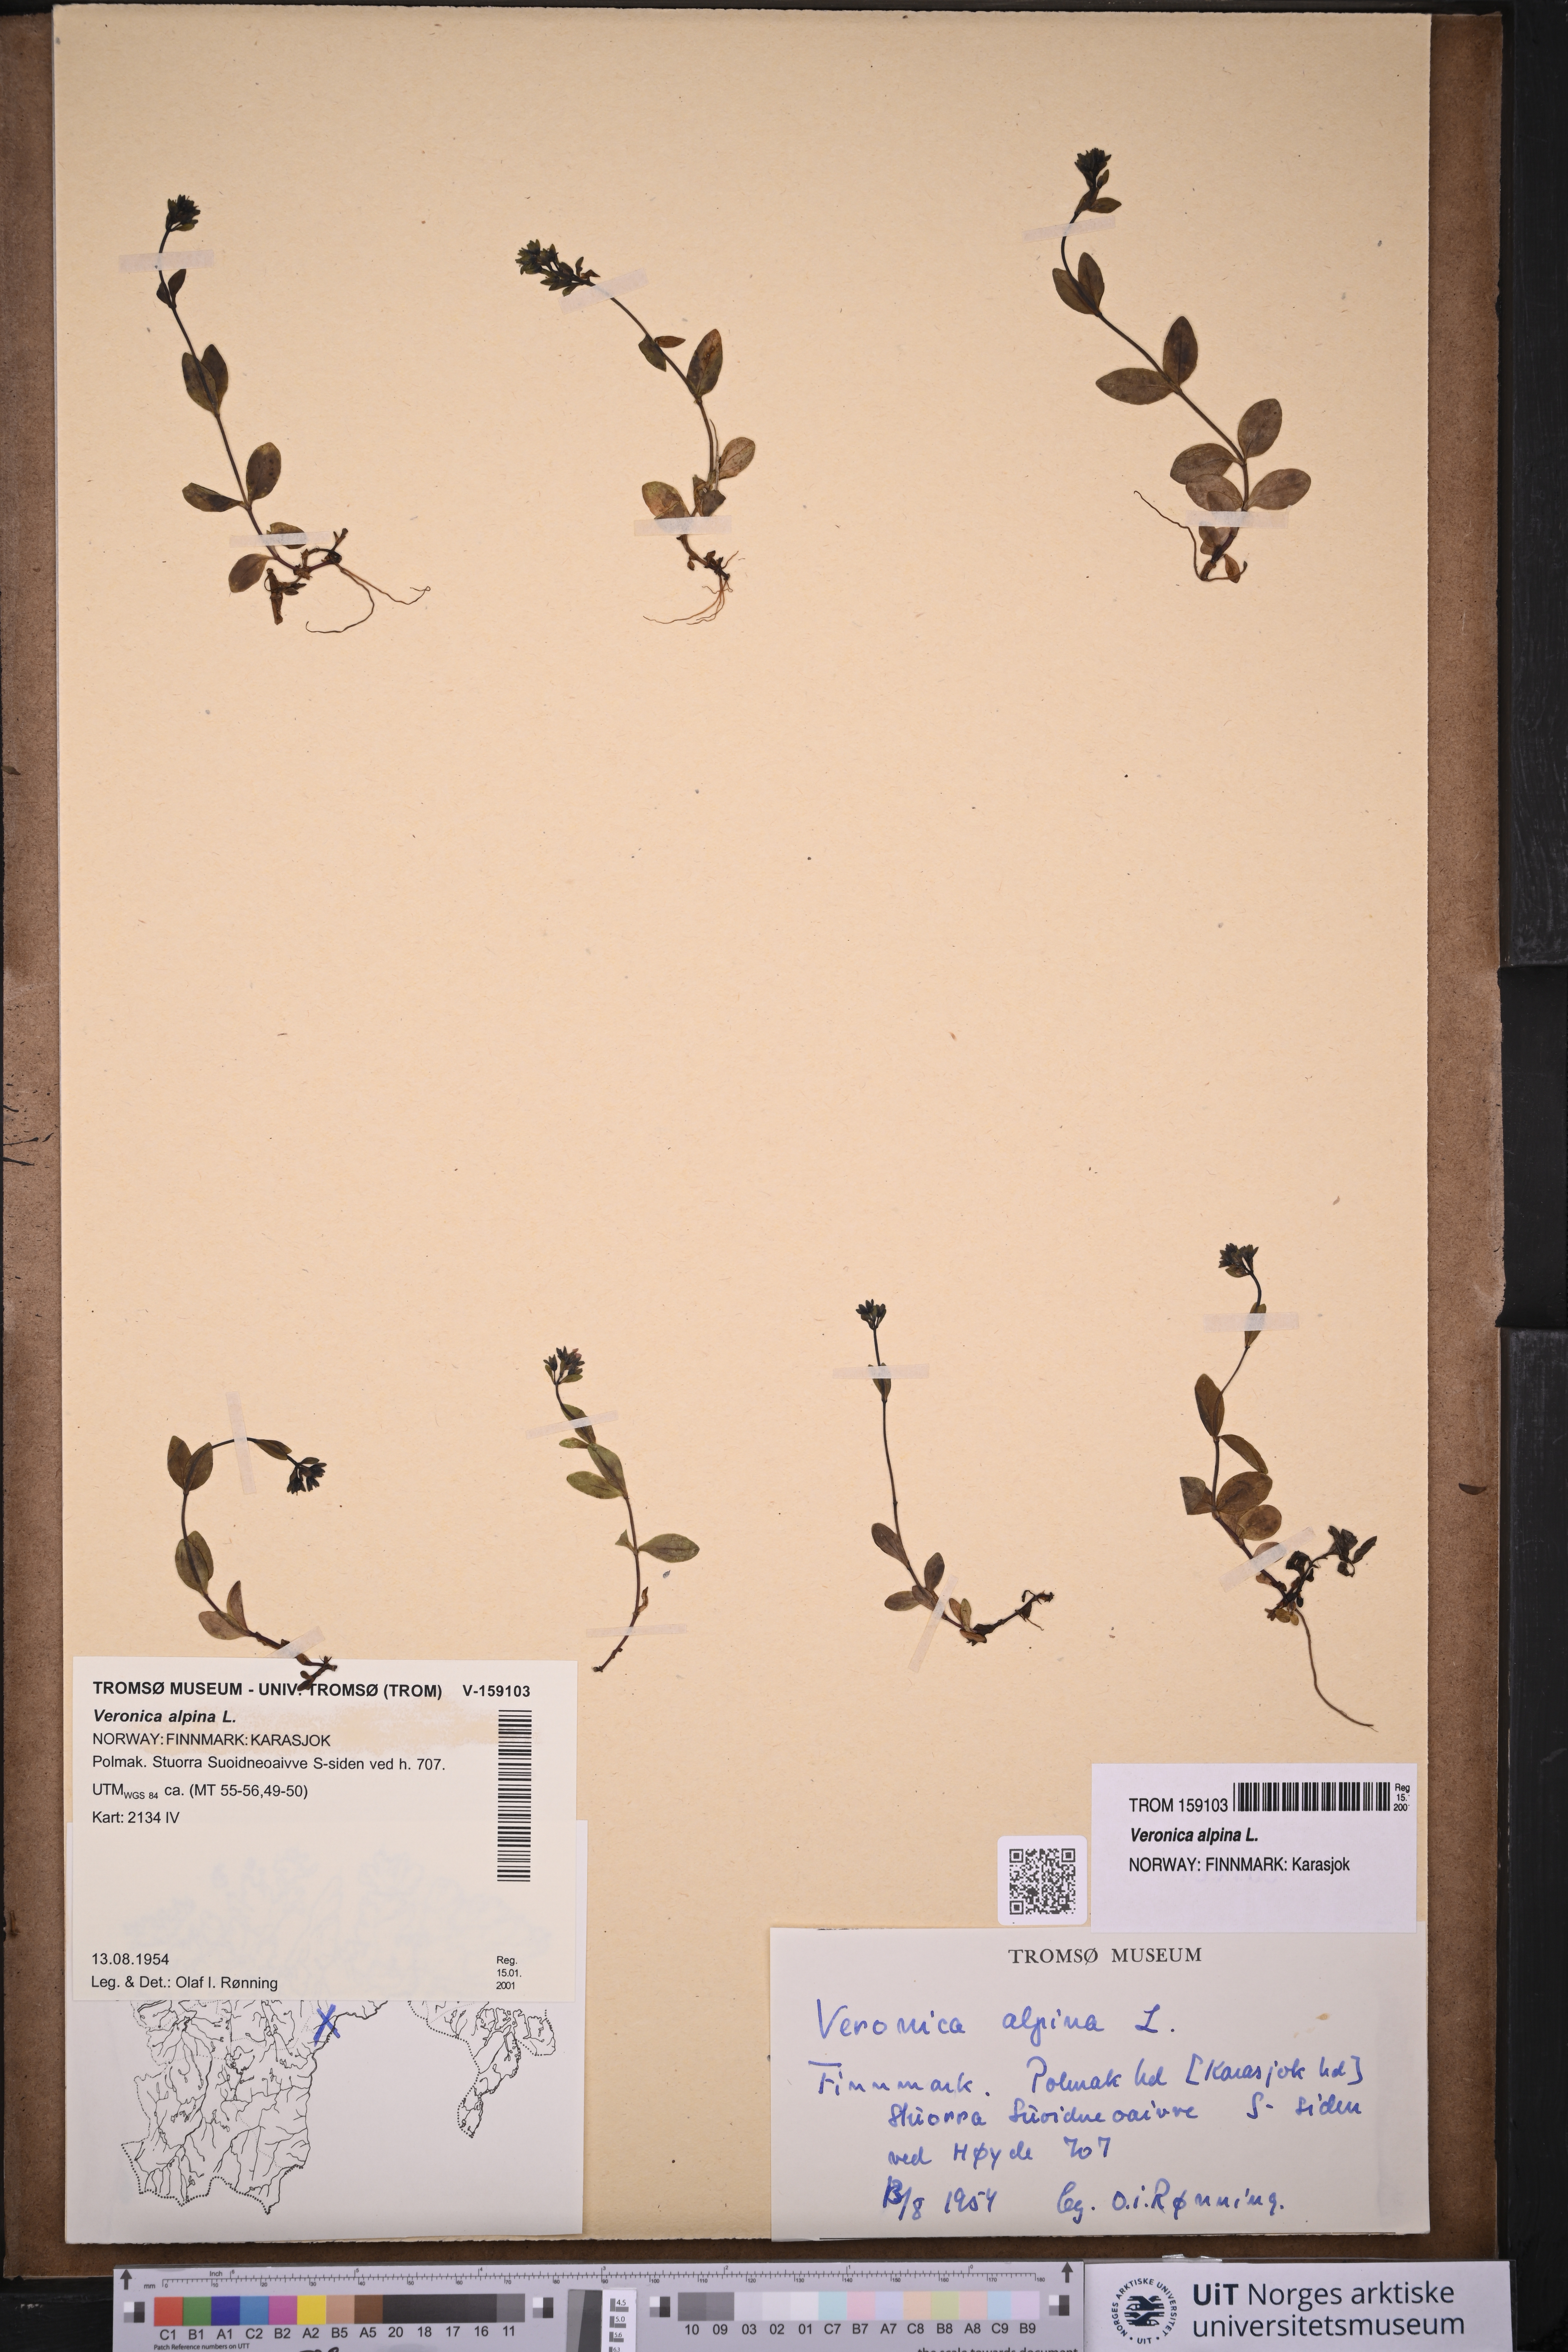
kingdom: Plantae
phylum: Tracheophyta
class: Magnoliopsida
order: Lamiales
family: Plantaginaceae
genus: Veronica
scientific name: Veronica alpina
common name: Alpine speedwell
